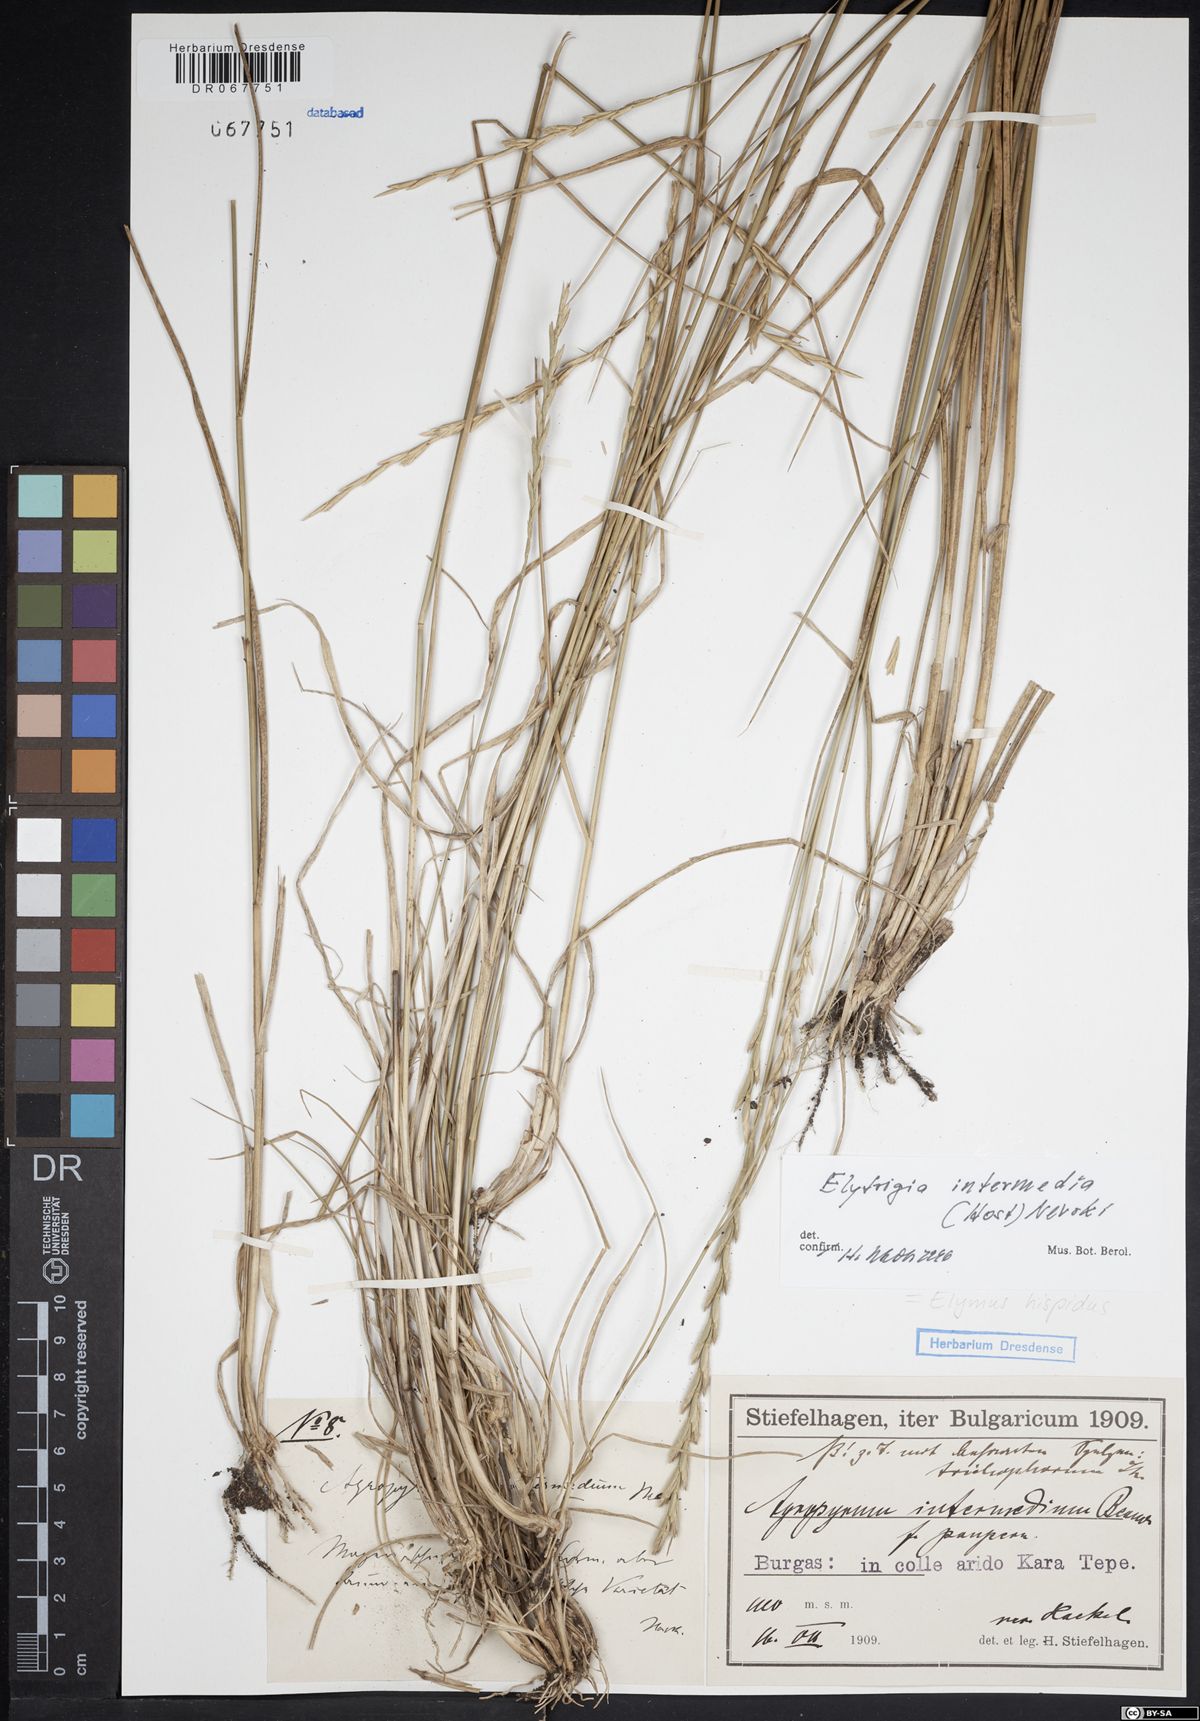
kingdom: Plantae
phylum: Tracheophyta
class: Liliopsida
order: Poales
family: Poaceae
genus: Thinopyrum
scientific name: Thinopyrum intermedium
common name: Intermediate wheatgrass
